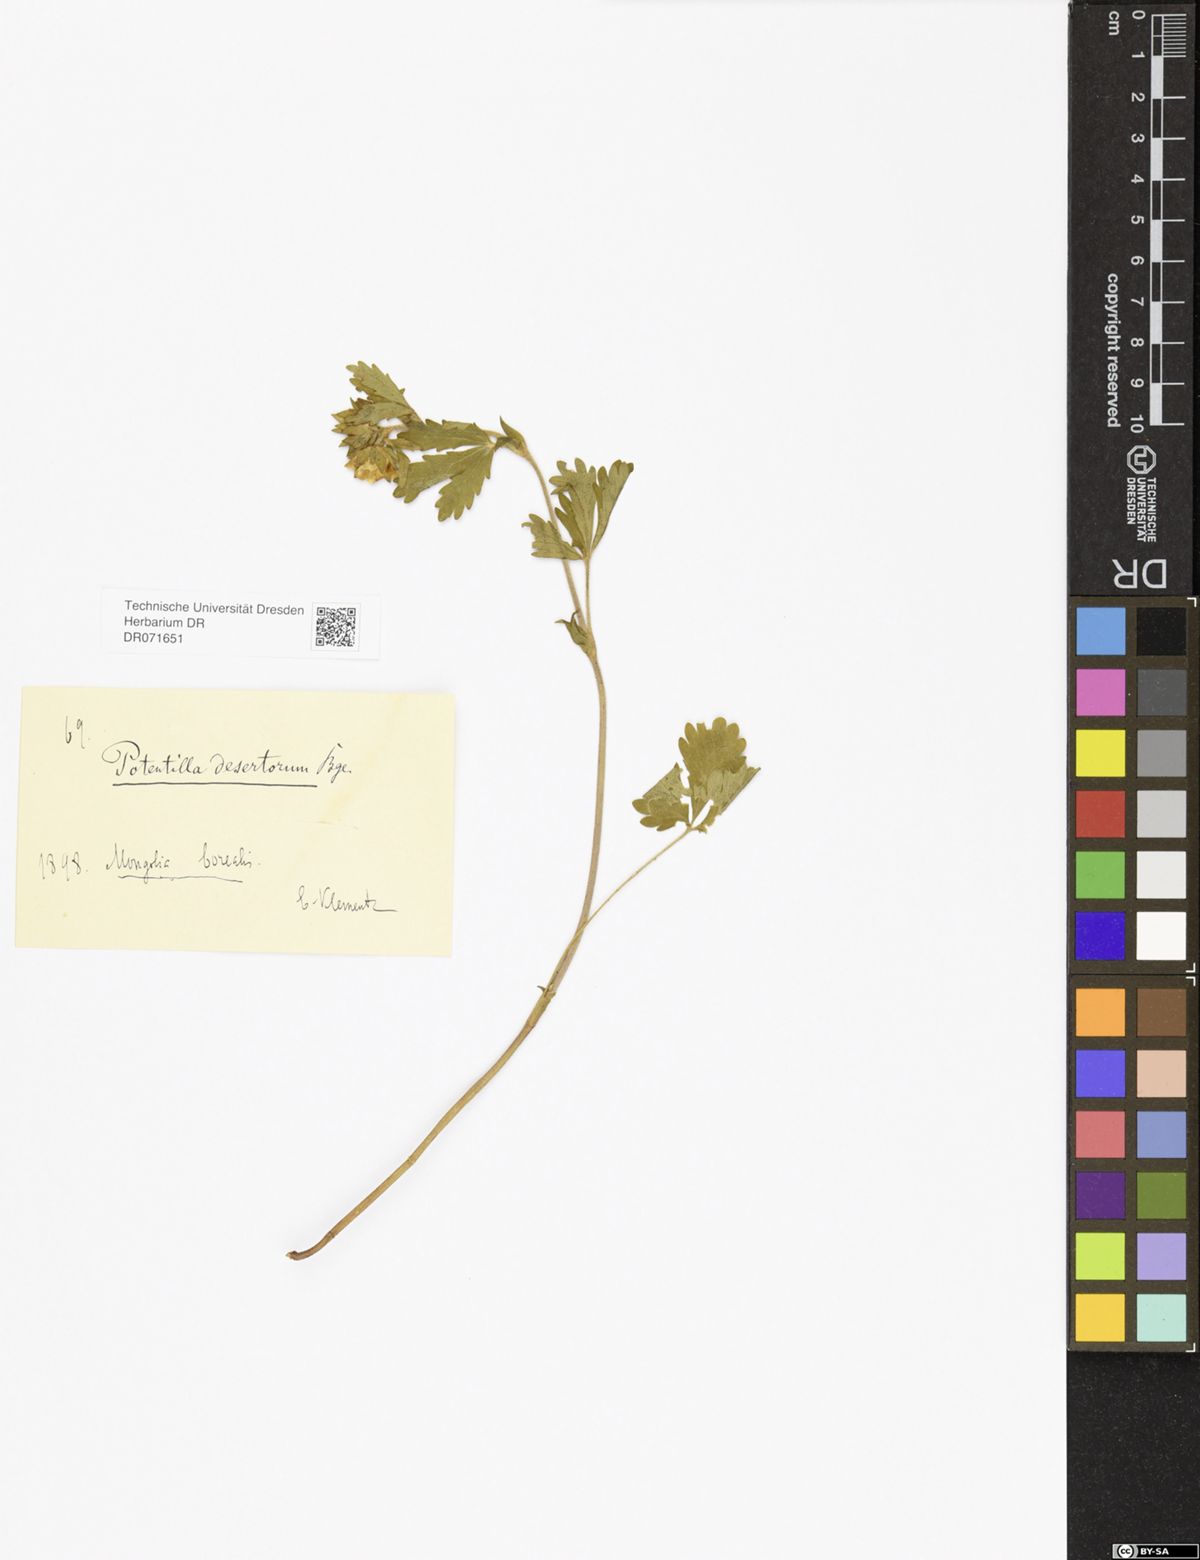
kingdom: Plantae
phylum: Tracheophyta
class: Magnoliopsida
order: Rosales
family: Rosaceae
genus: Potentilla
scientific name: Potentilla desertorum
